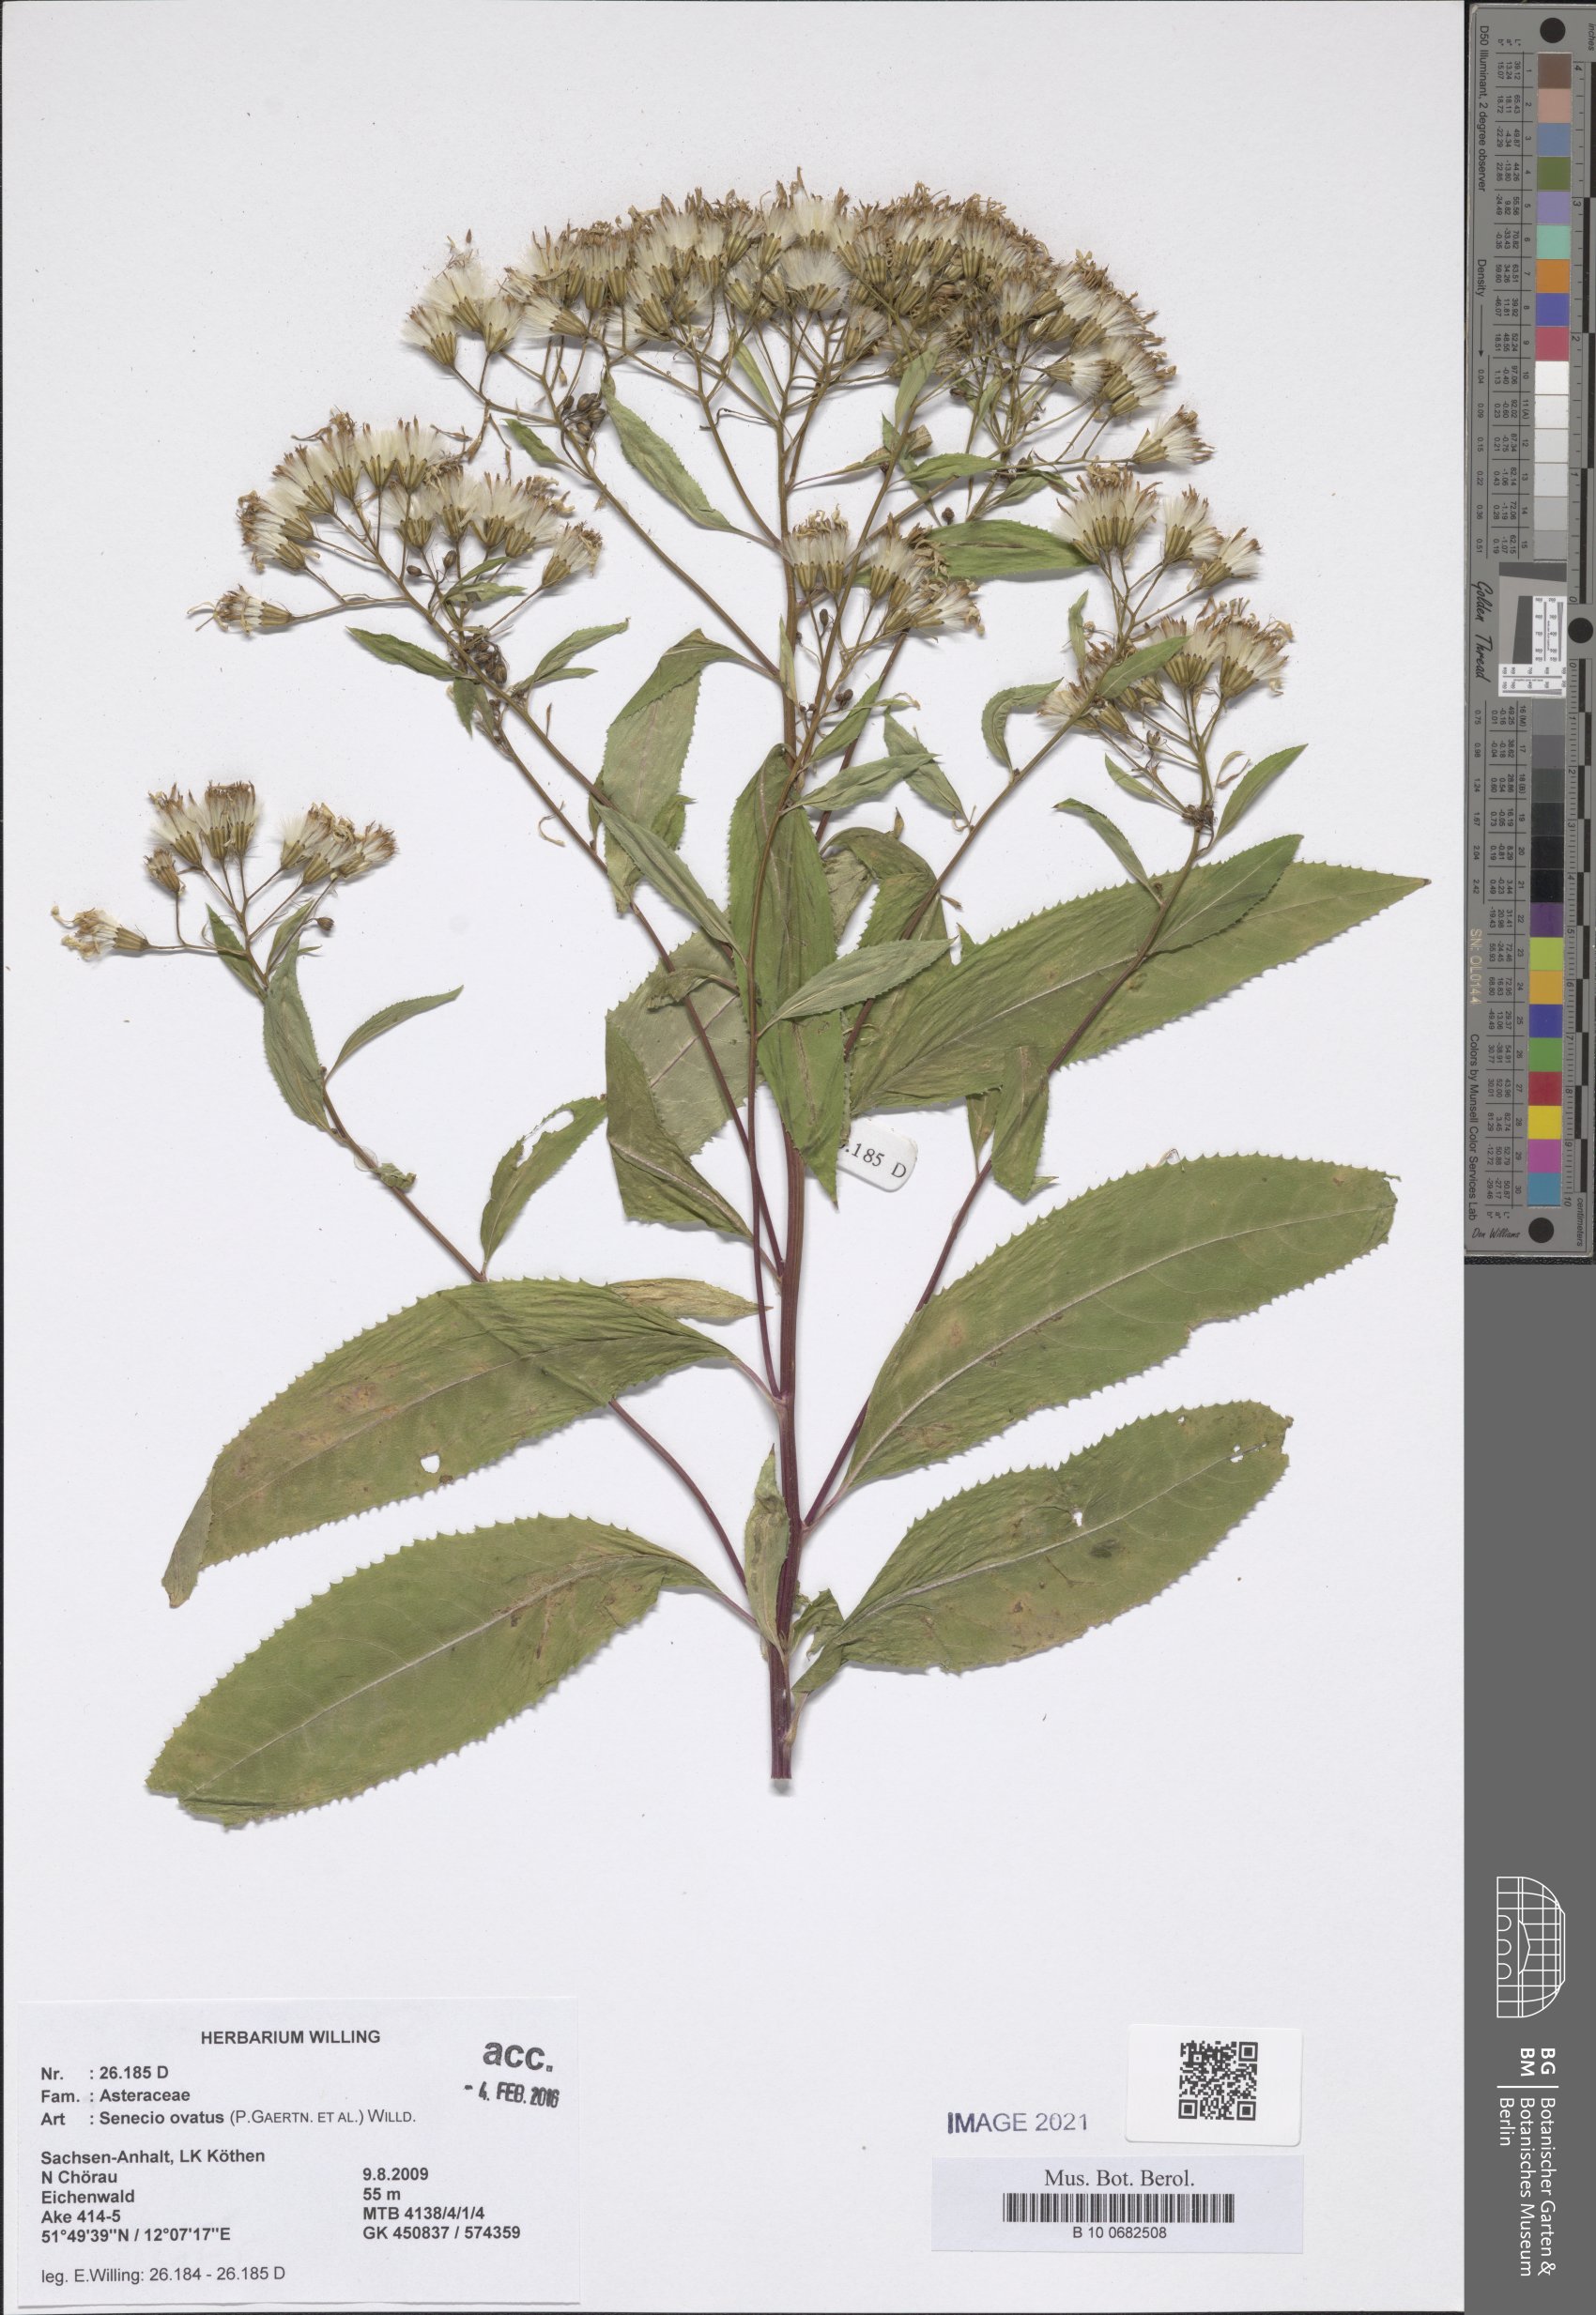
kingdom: Plantae
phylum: Tracheophyta
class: Magnoliopsida
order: Asterales
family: Asteraceae
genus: Senecio
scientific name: Senecio ovatus
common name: Wood ragwort
